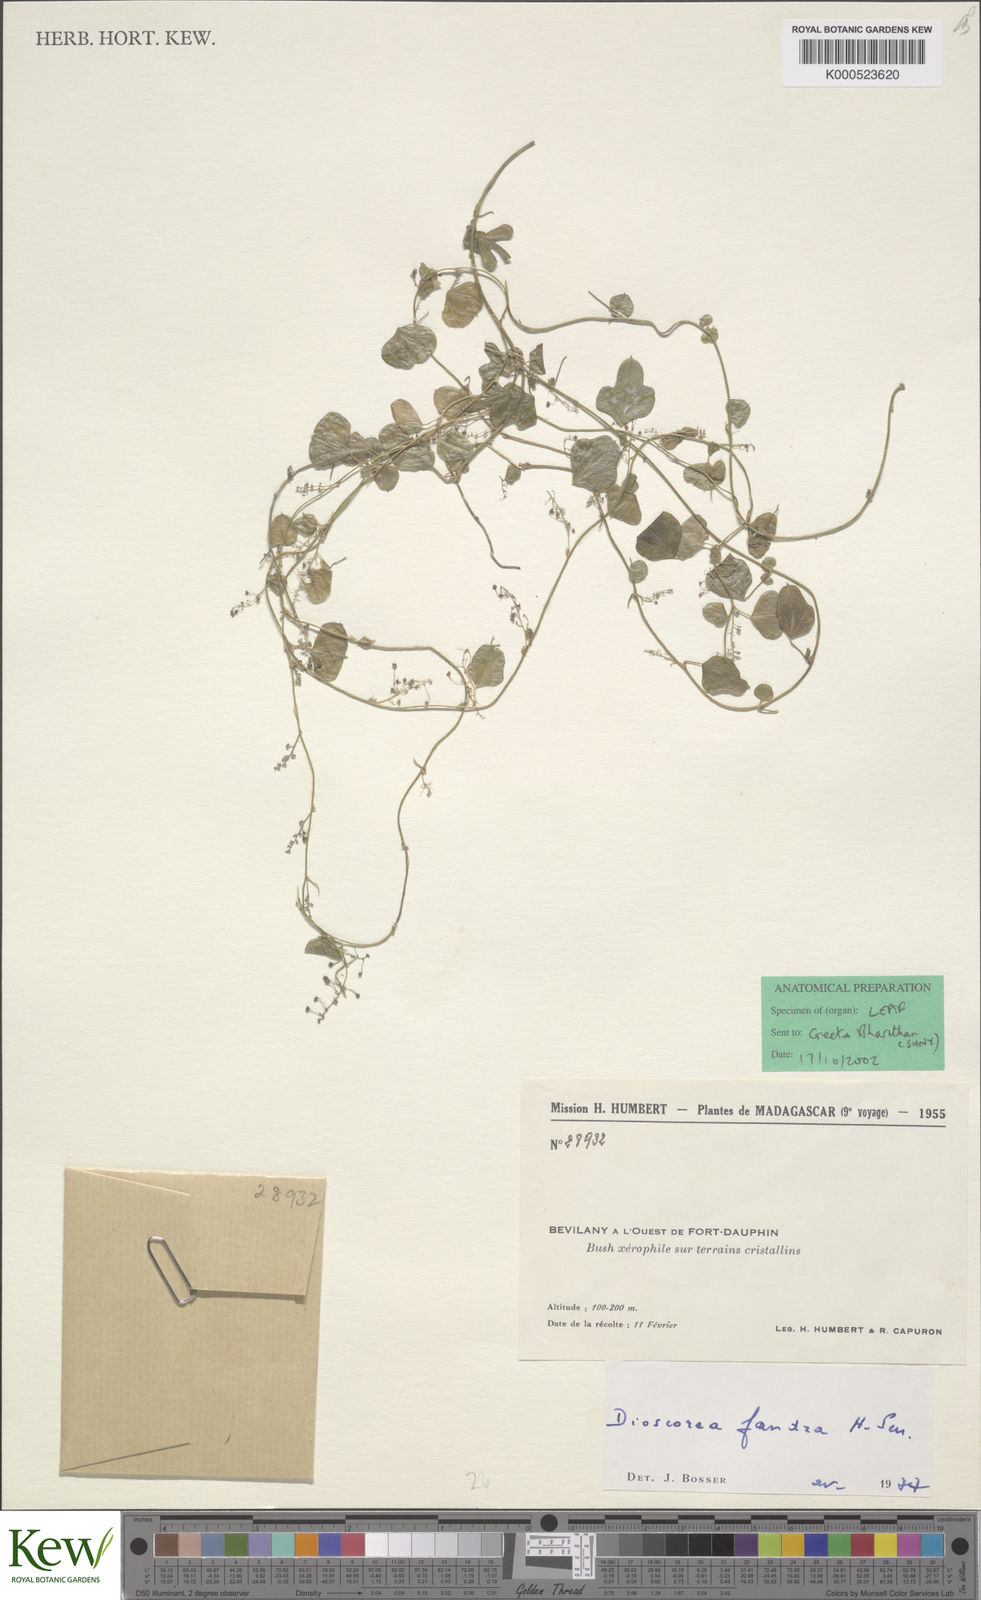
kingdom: Plantae
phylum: Tracheophyta
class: Liliopsida
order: Dioscoreales
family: Dioscoreaceae
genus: Dioscorea
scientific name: Dioscorea fandra
